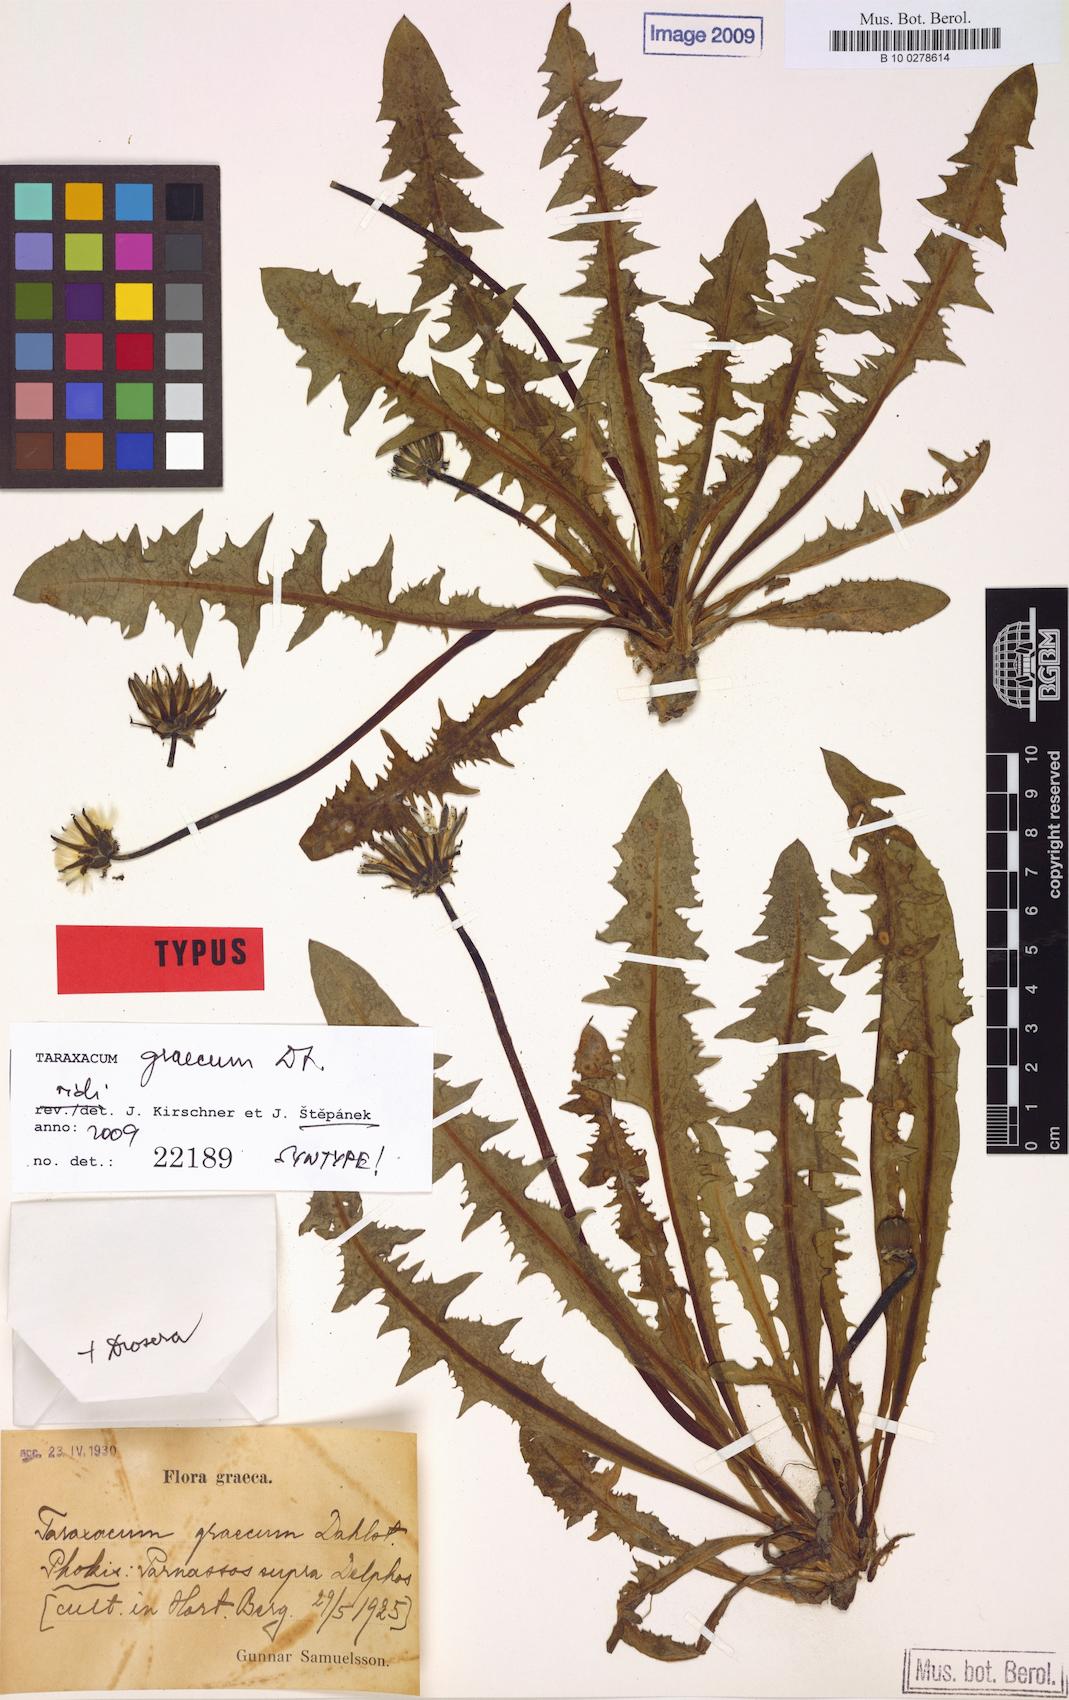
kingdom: Plantae
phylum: Tracheophyta
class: Magnoliopsida
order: Asterales
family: Asteraceae
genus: Taraxacum
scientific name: Taraxacum graecum
